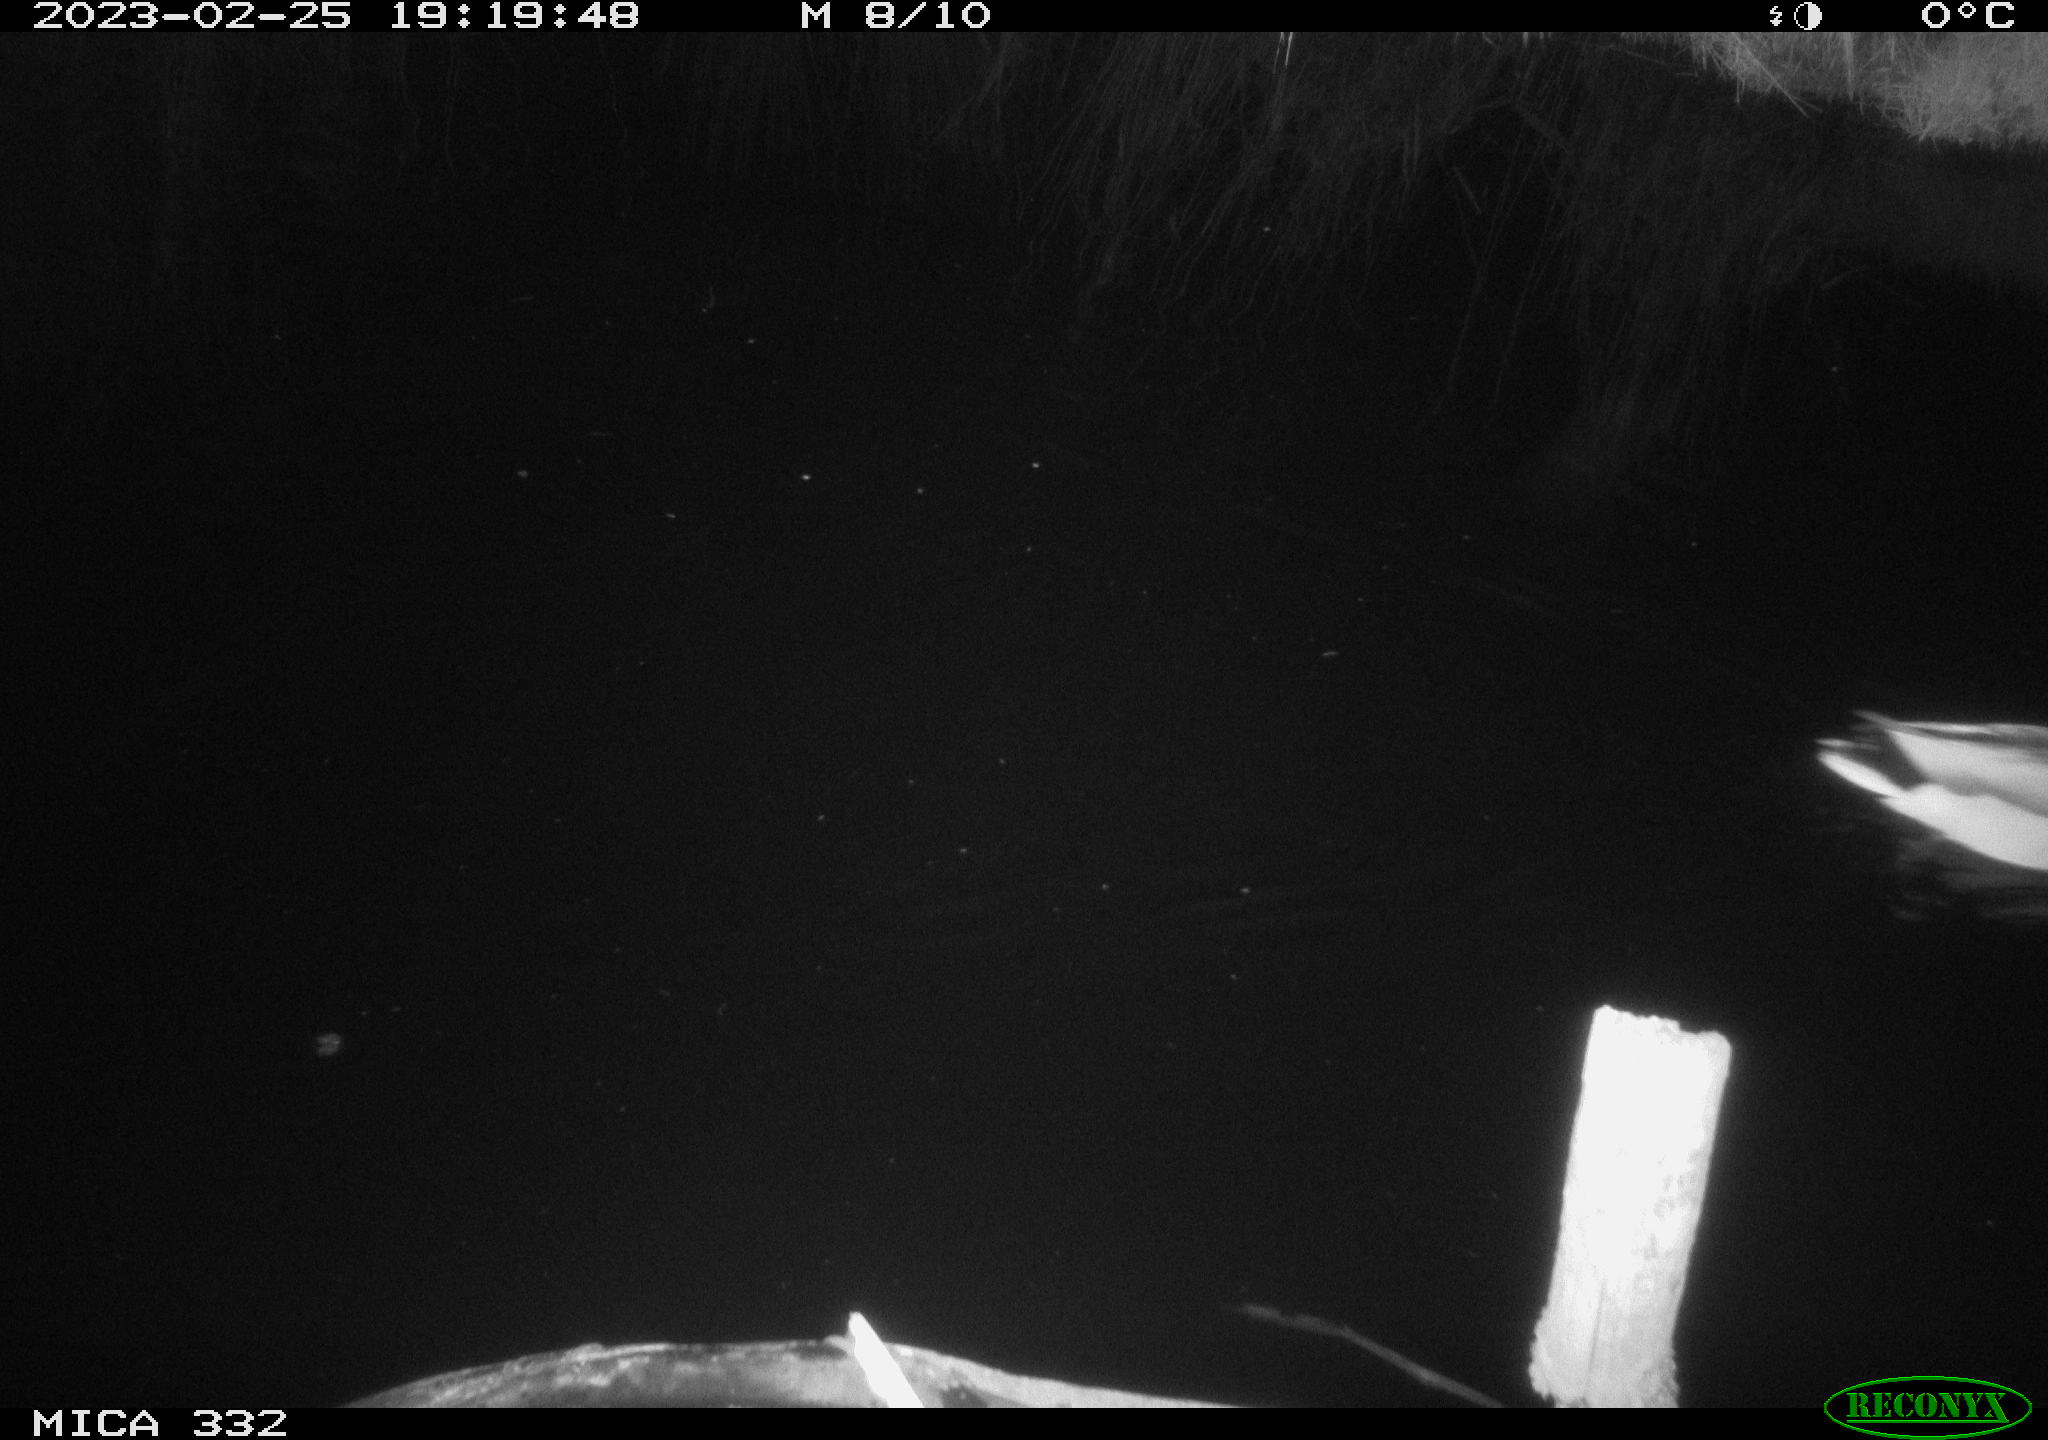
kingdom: Animalia
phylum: Chordata
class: Aves
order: Anseriformes
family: Anatidae
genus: Anas
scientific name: Anas
